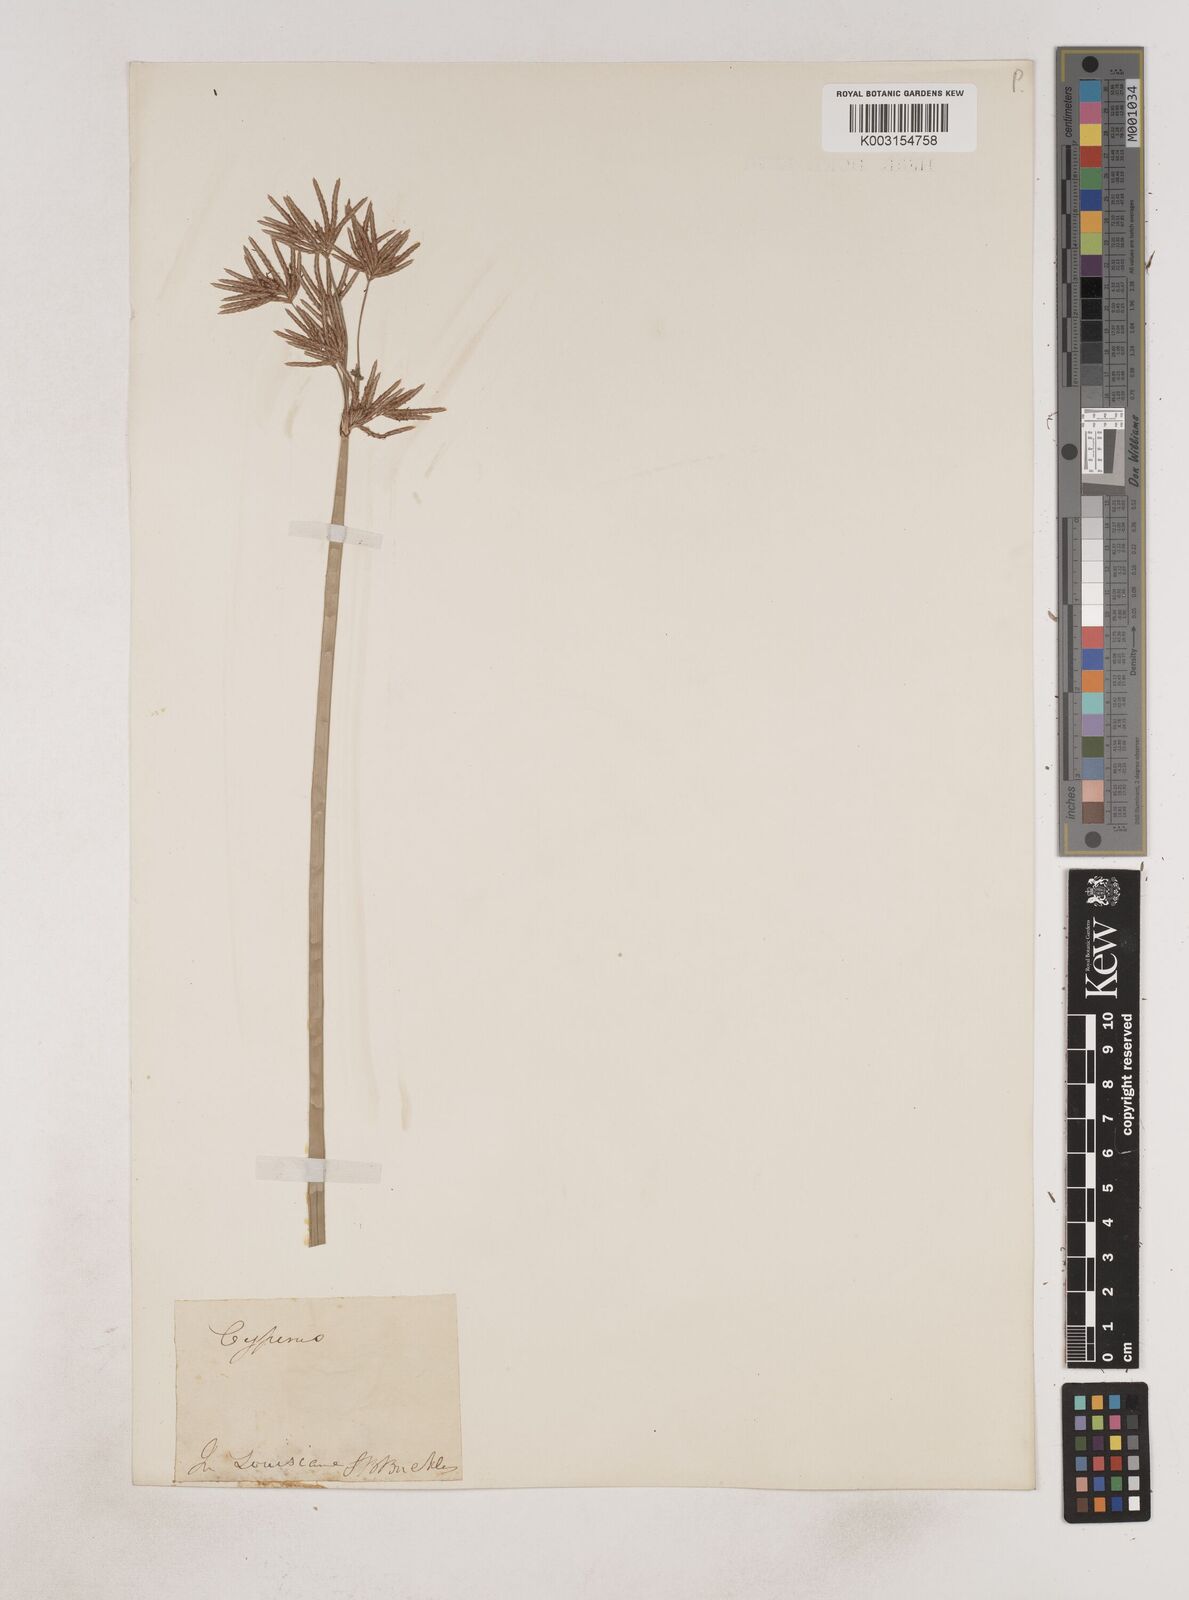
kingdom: Plantae
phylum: Tracheophyta
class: Liliopsida
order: Poales
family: Cyperaceae
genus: Cyperus
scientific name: Cyperus articulatus
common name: Jointed flatsedge
